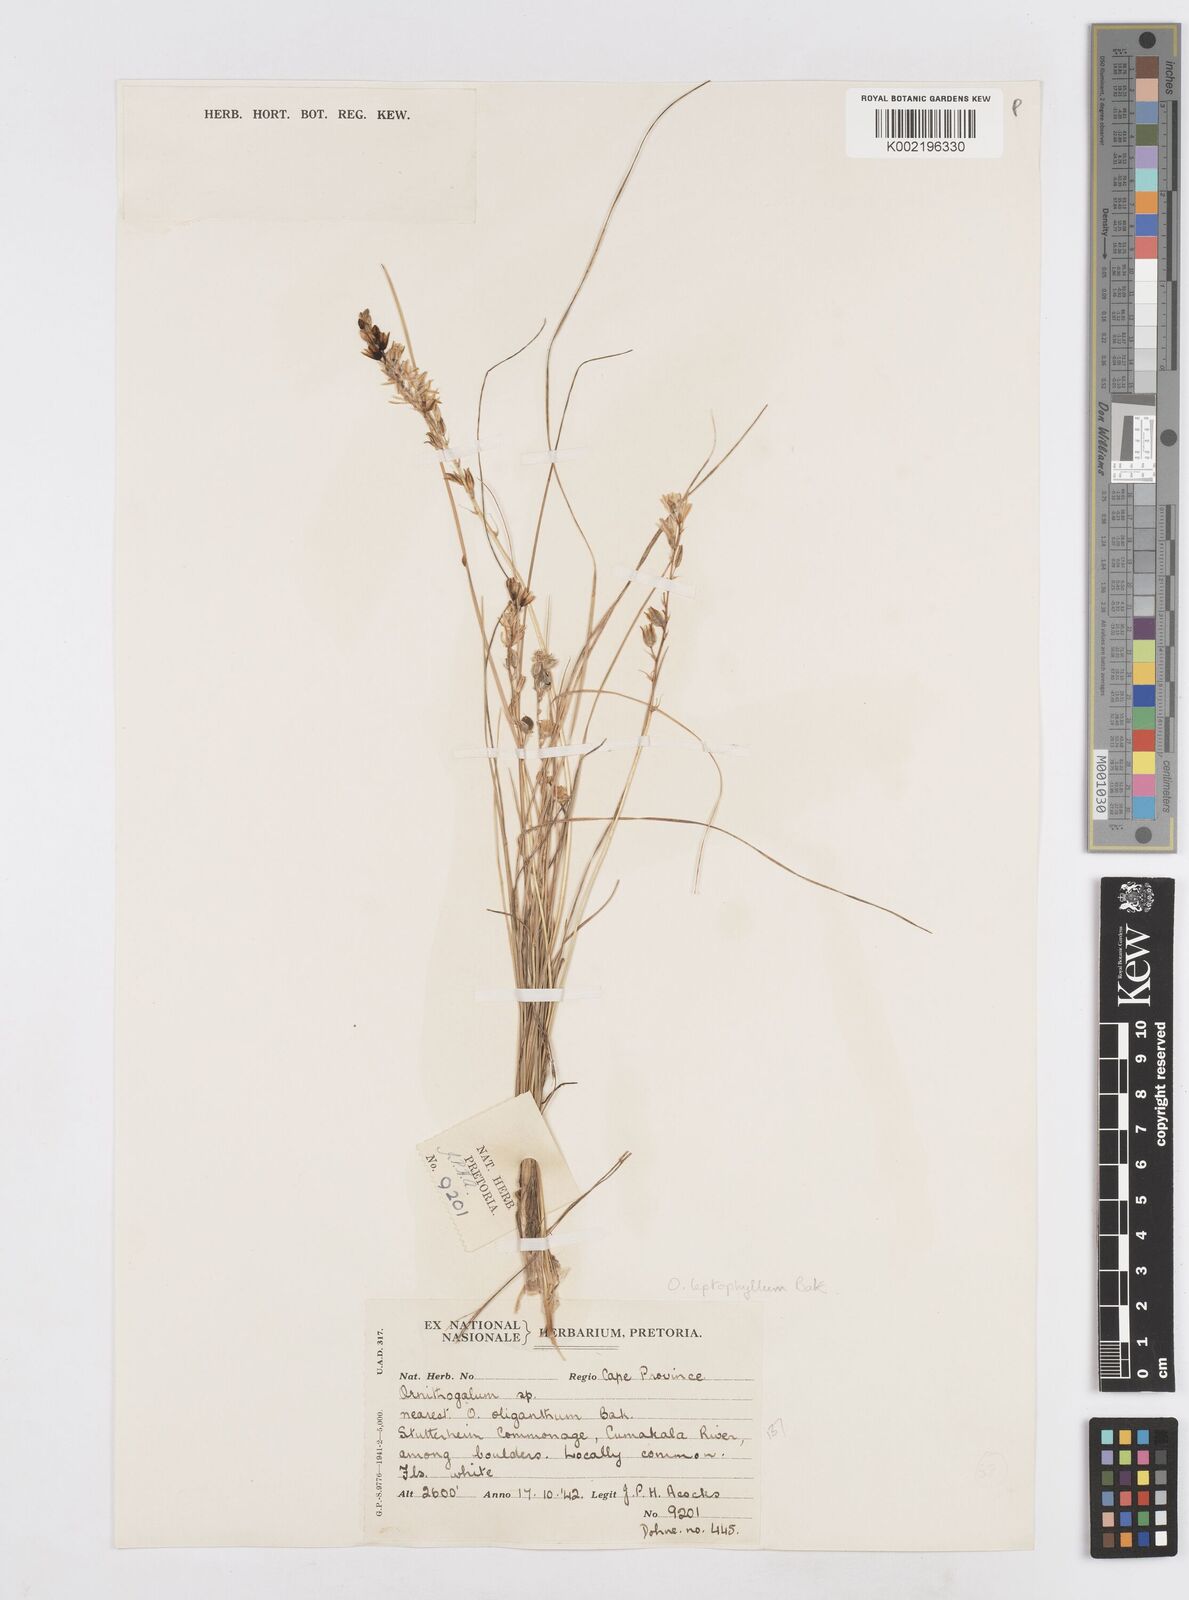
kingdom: Plantae
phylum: Tracheophyta
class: Liliopsida
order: Asparagales
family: Asparagaceae
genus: Ornithogalum
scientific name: Ornithogalum juncifolium
